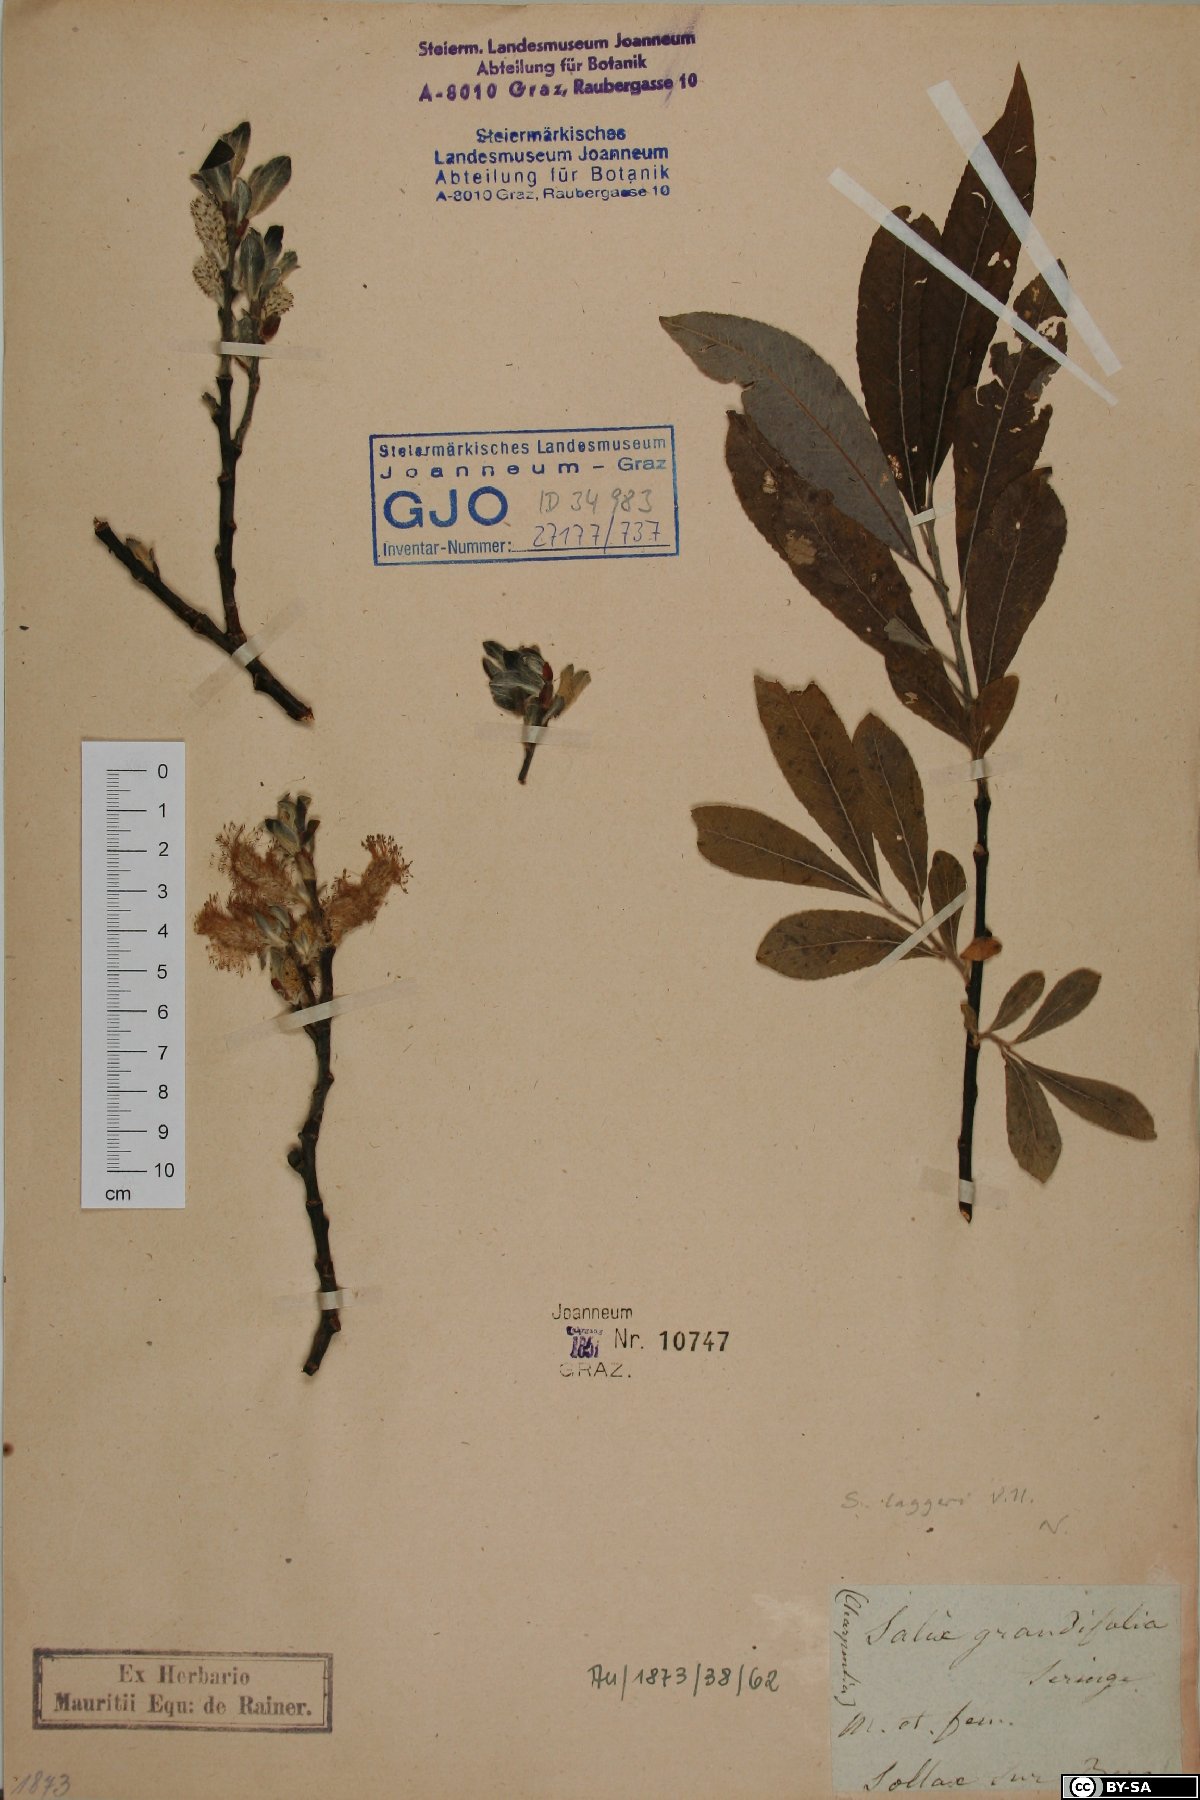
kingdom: Plantae
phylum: Tracheophyta
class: Magnoliopsida
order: Malpighiales
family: Salicaceae
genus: Salix
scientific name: Salix laggeri
